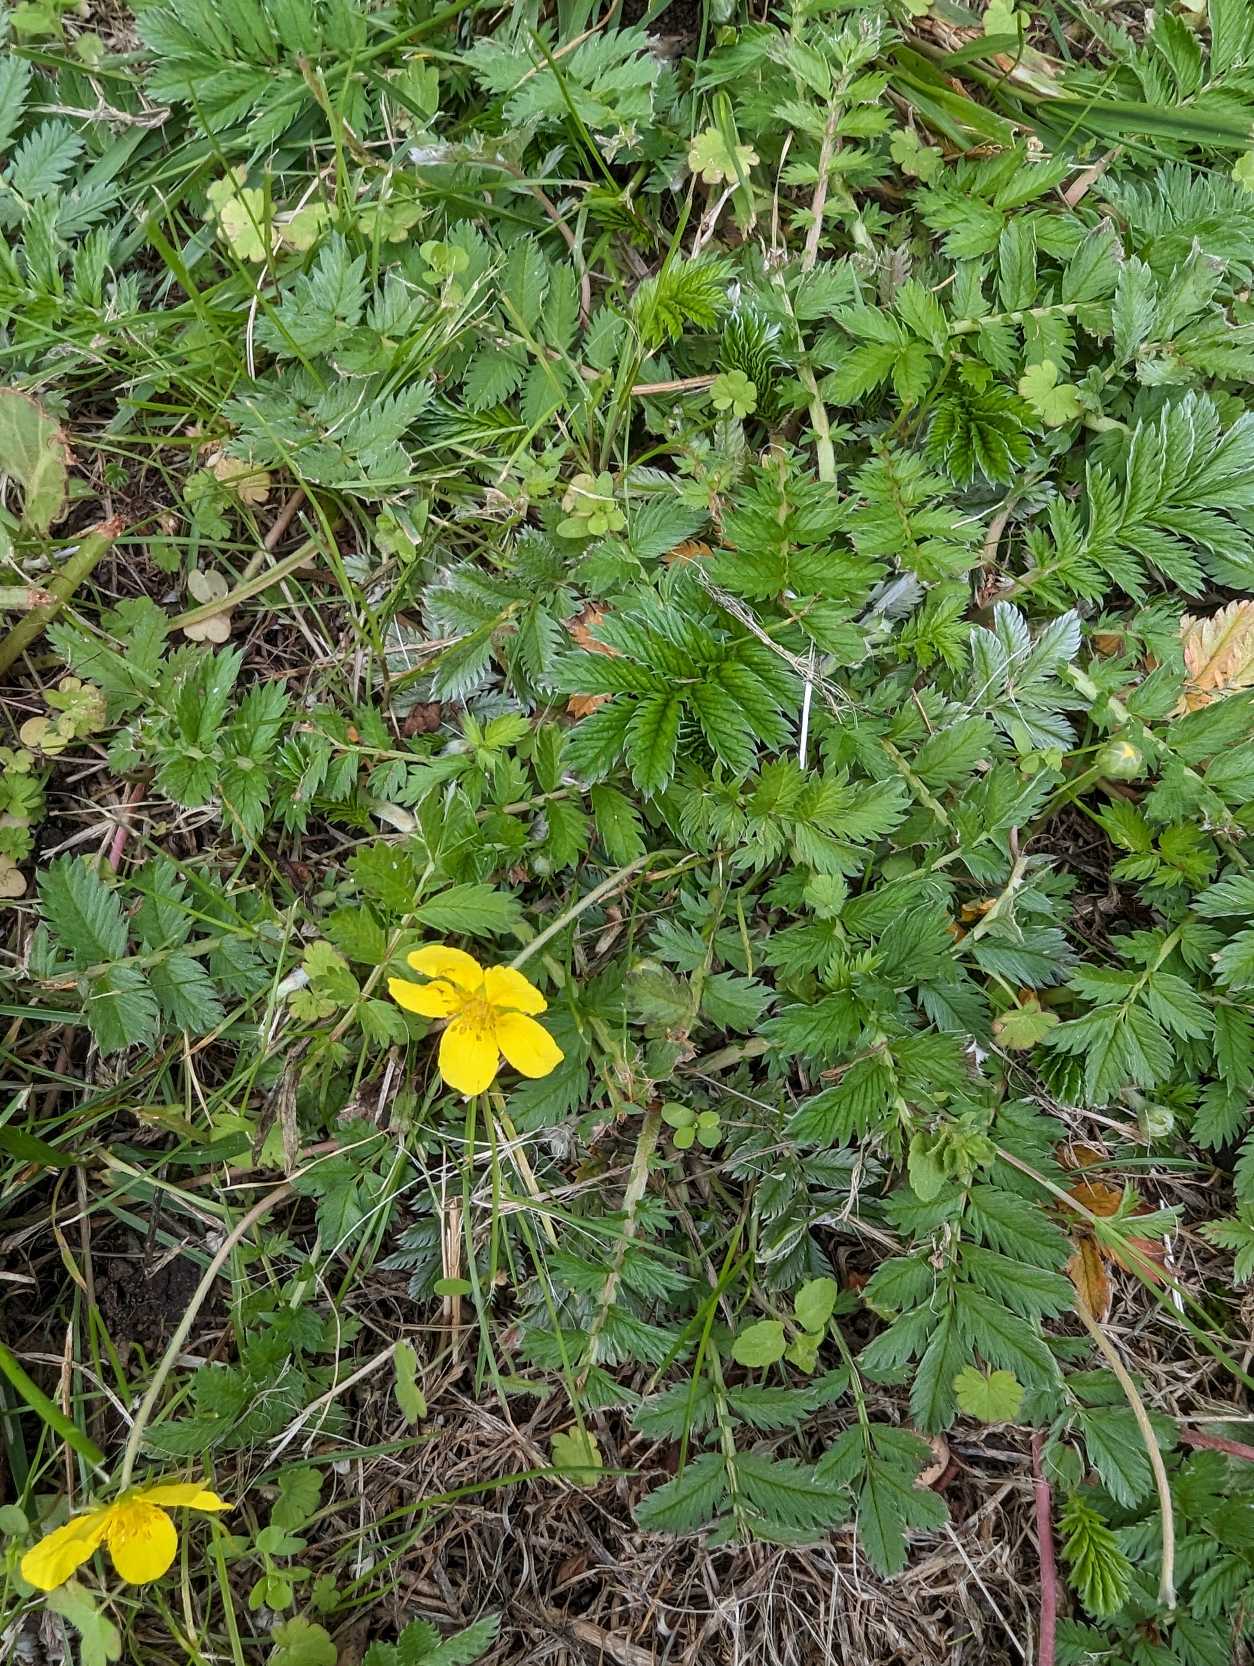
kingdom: Plantae
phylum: Tracheophyta
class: Magnoliopsida
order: Rosales
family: Rosaceae
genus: Argentina
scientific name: Argentina anserina
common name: Gåsepotentil
